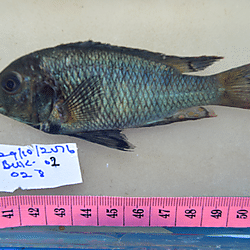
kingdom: Animalia
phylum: Chordata
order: Perciformes
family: Cichlidae
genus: Neochromis
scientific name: Neochromis
